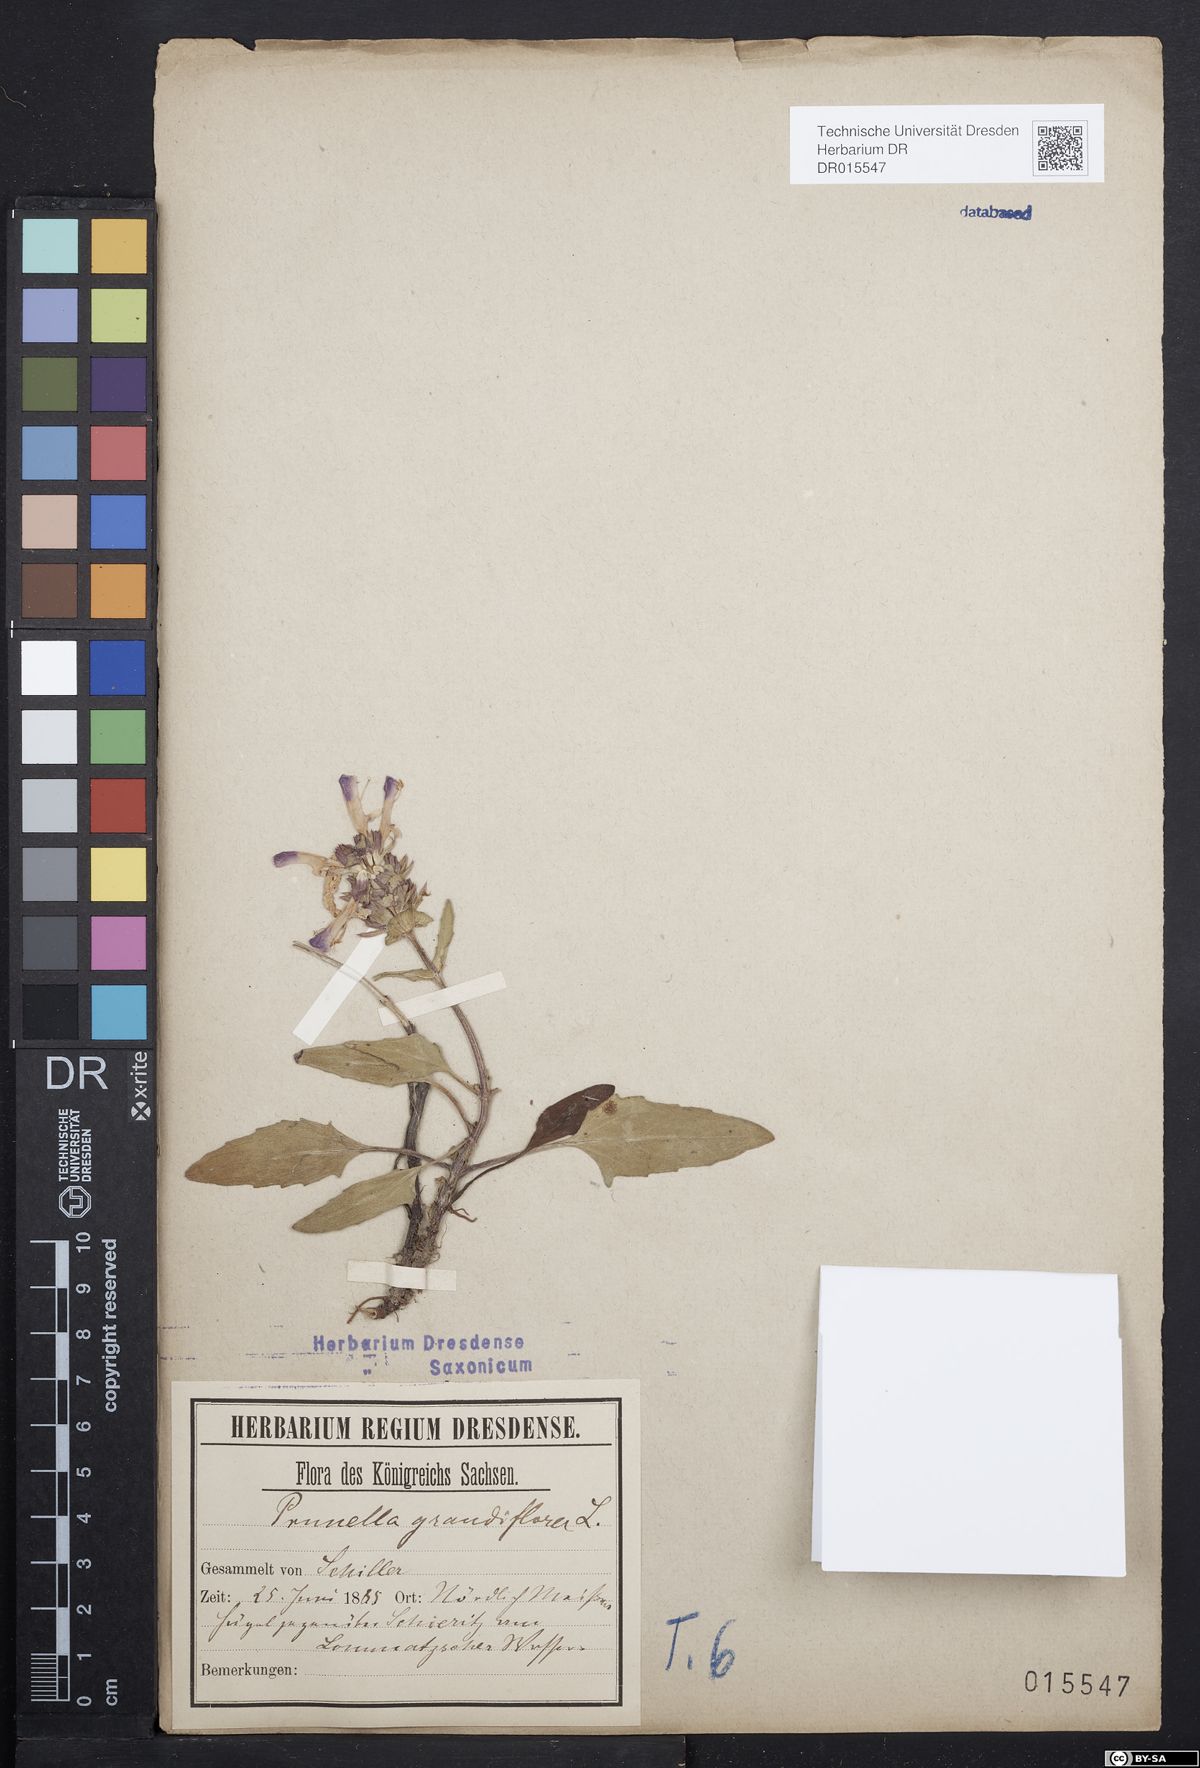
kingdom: Plantae
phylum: Tracheophyta
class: Magnoliopsida
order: Lamiales
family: Lamiaceae
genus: Prunella
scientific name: Prunella grandiflora
